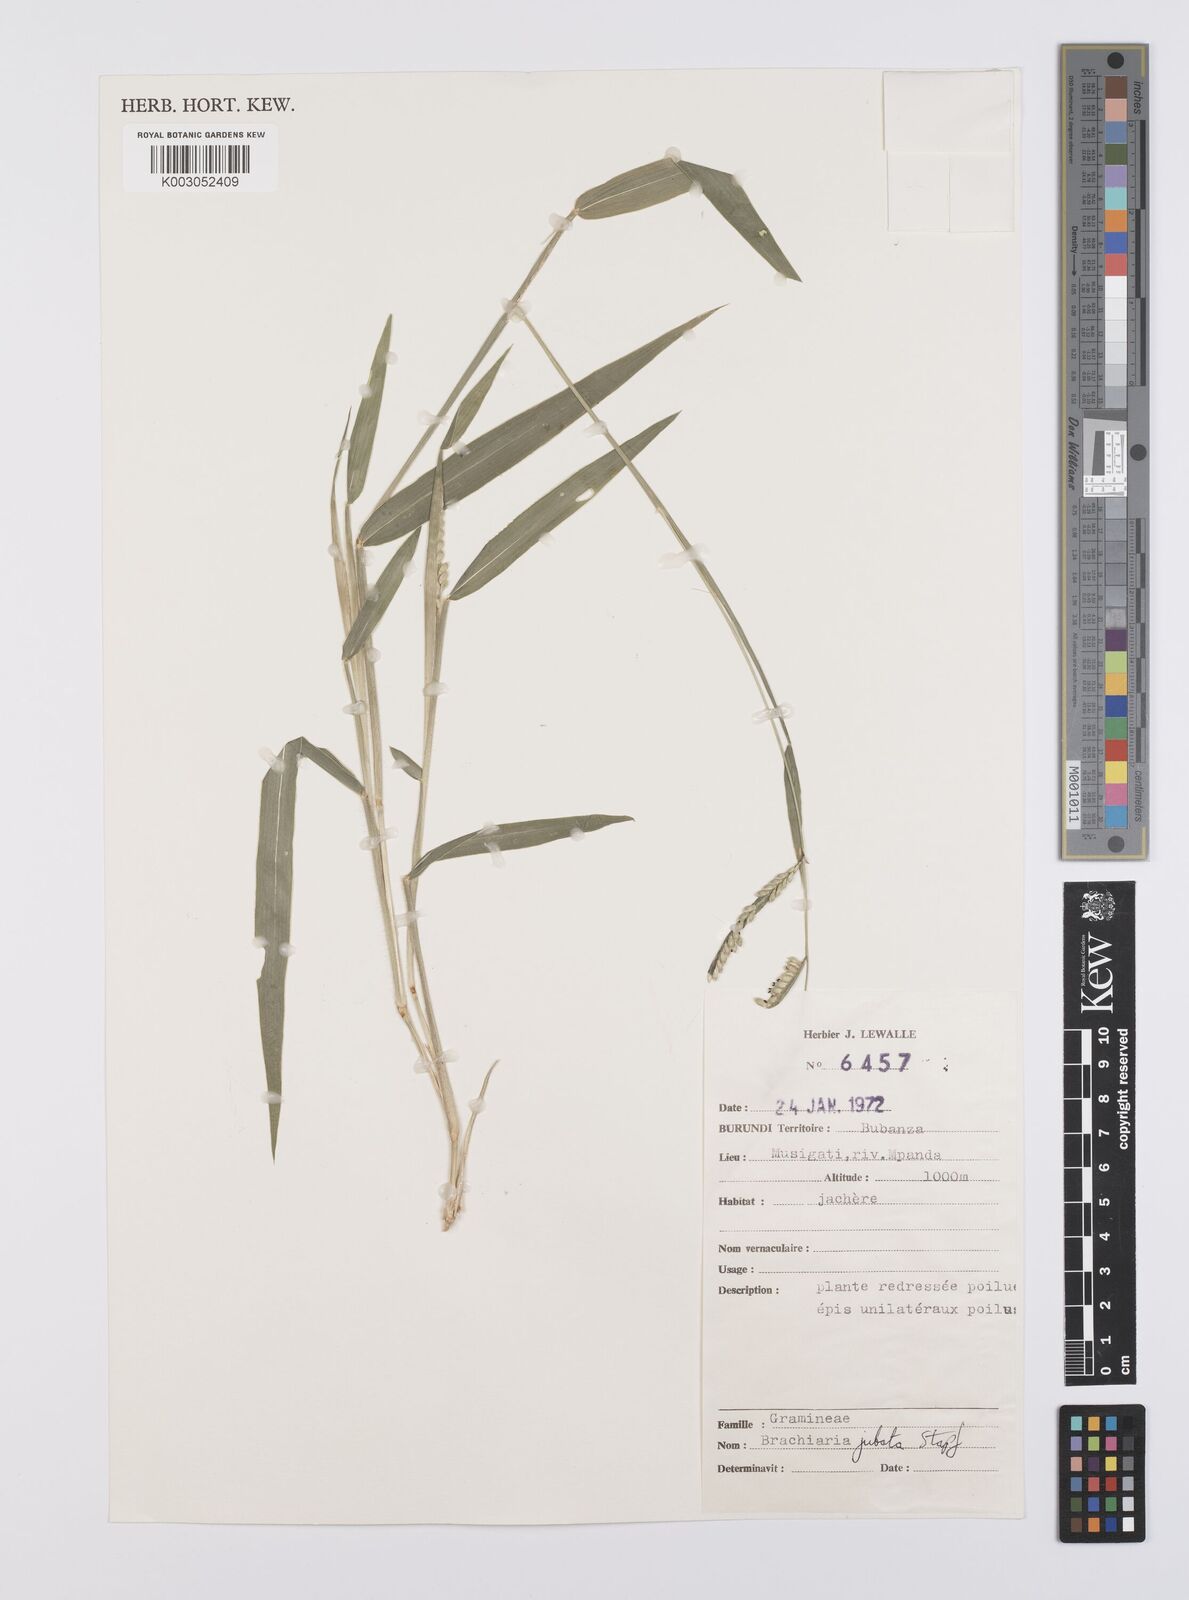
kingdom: Plantae
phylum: Tracheophyta
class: Liliopsida
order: Poales
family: Poaceae
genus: Urochloa
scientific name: Urochloa eminii
